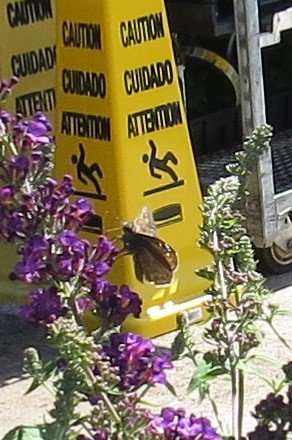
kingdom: Animalia
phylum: Arthropoda
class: Insecta
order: Lepidoptera
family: Hesperiidae
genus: Gesta
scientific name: Gesta
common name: Horace's Duskywing
